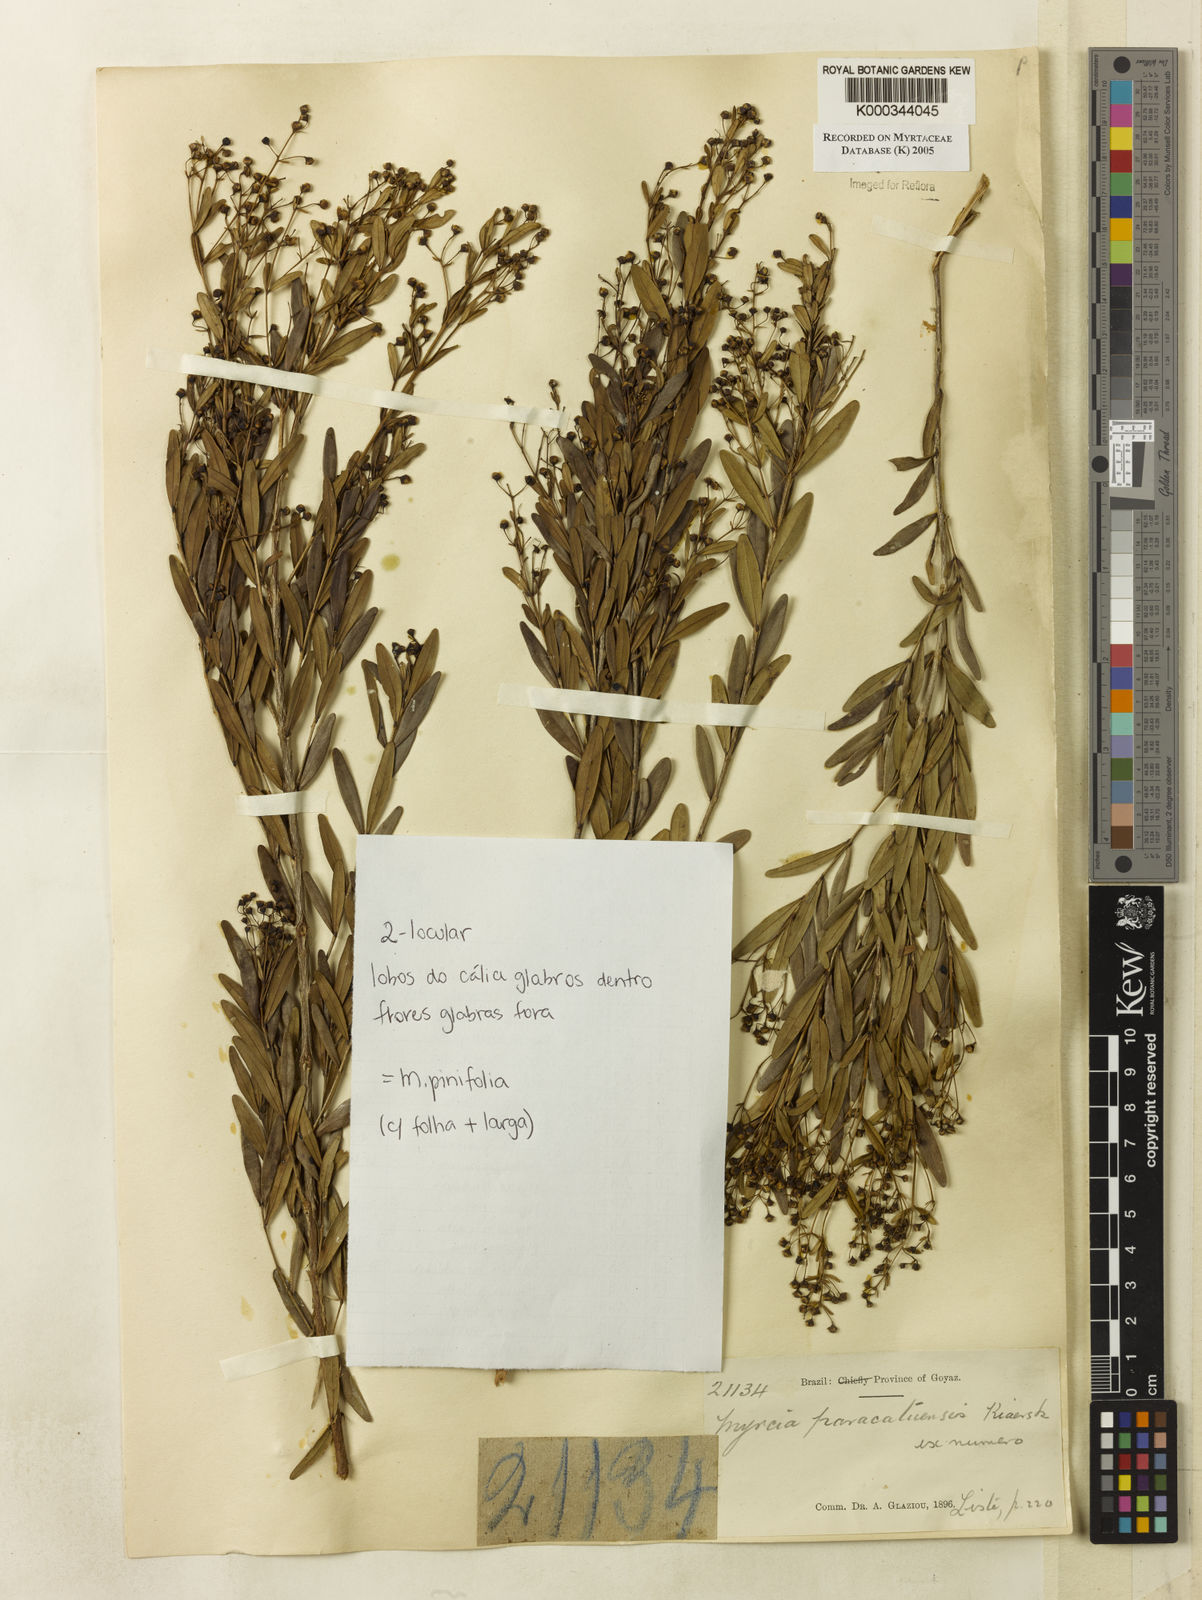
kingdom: Plantae
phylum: Tracheophyta
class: Magnoliopsida
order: Myrtales
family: Myrtaceae
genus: Myrcia
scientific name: Myrcia paracatuensis
